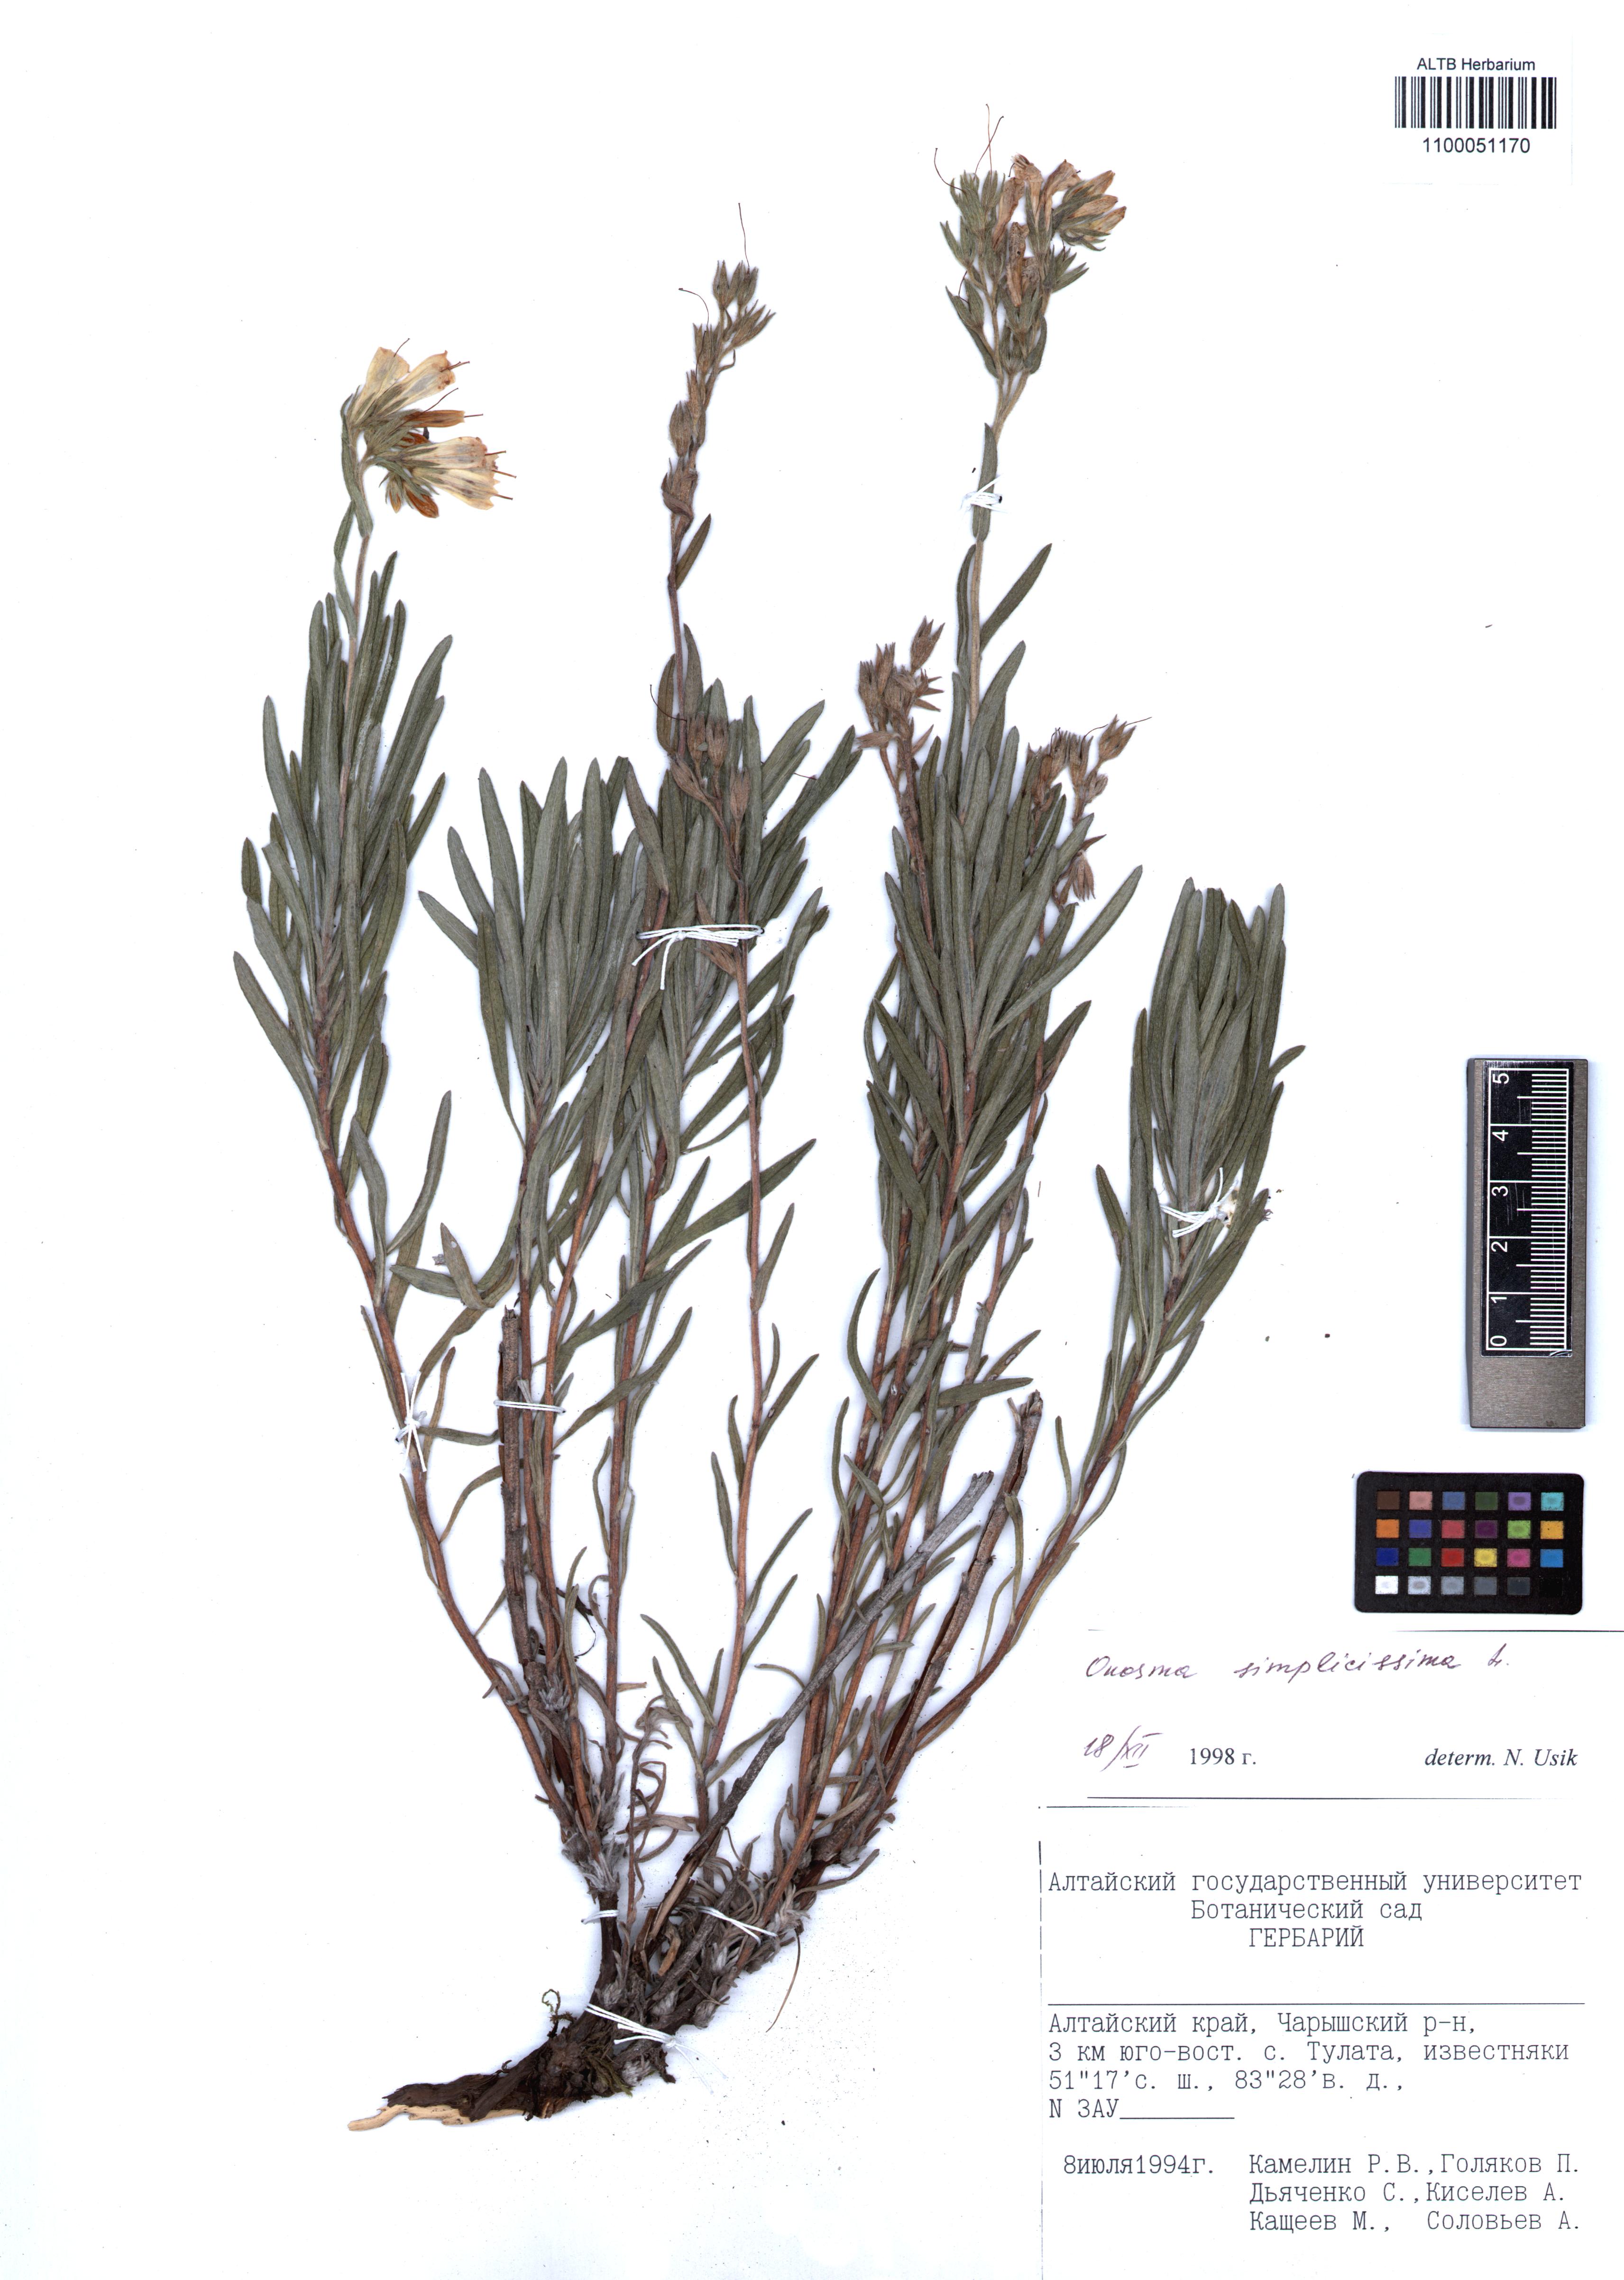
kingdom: Plantae
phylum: Tracheophyta
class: Magnoliopsida
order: Boraginales
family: Boraginaceae
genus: Onosma
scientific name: Onosma simplicissima
